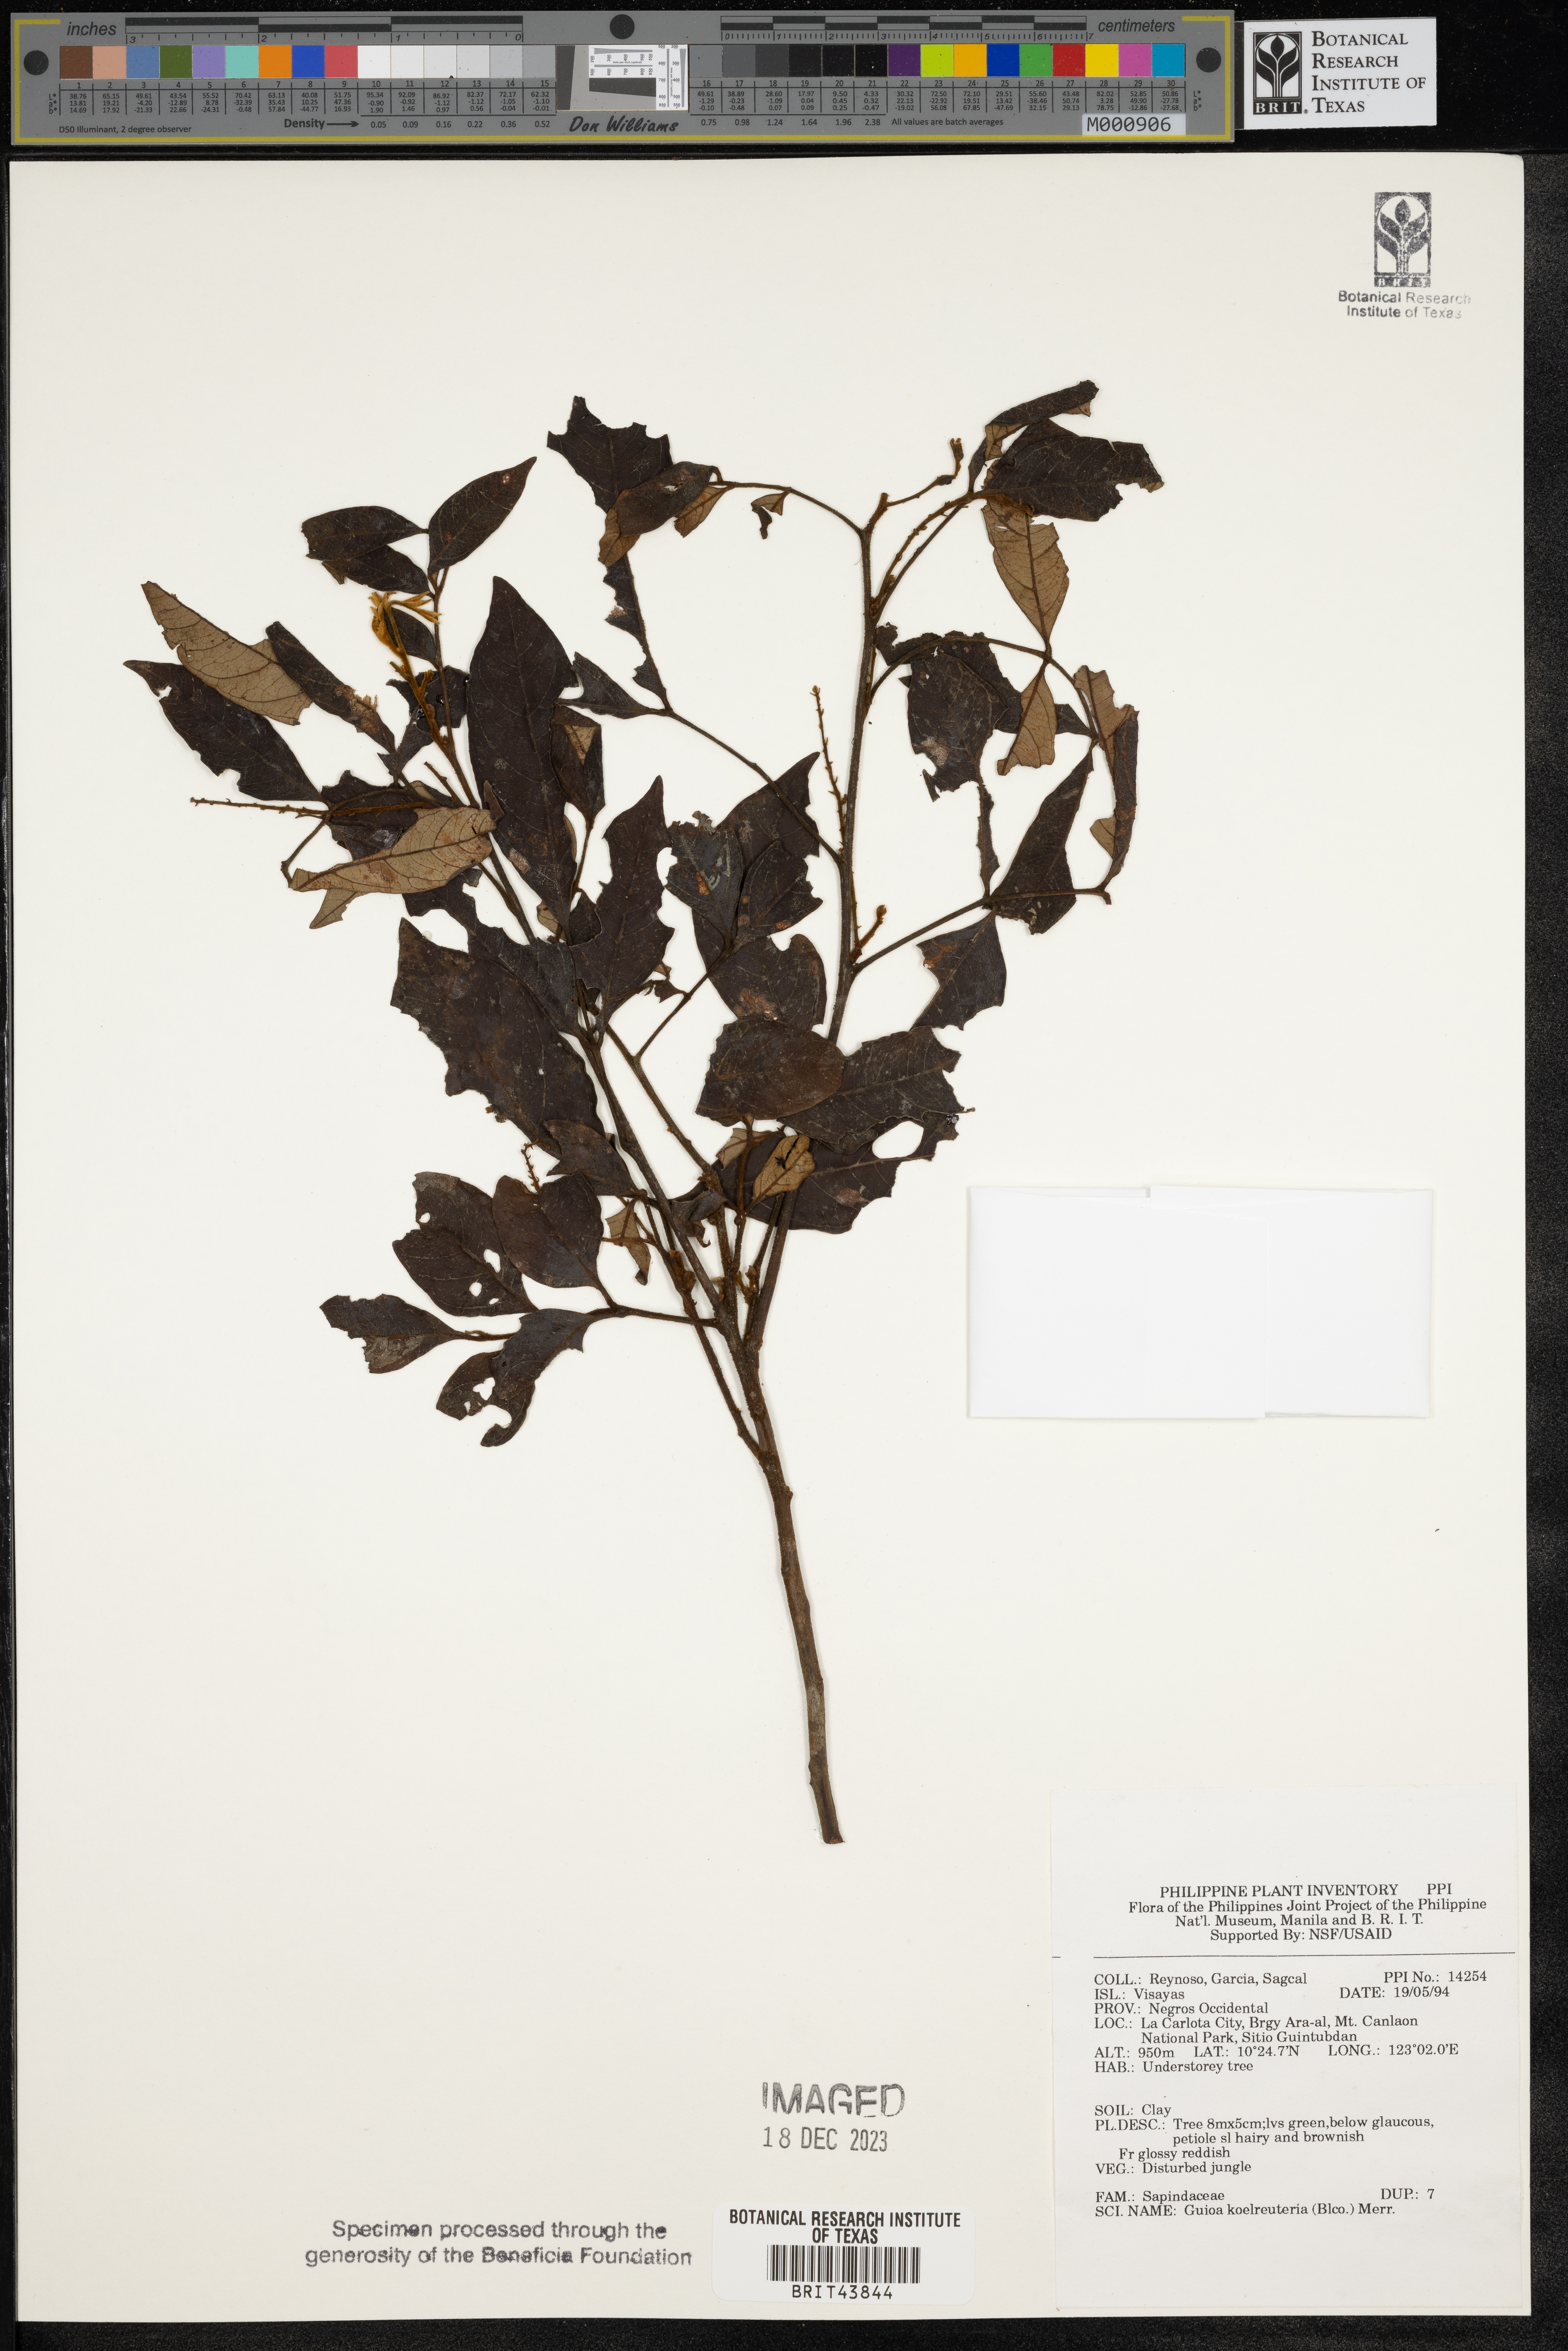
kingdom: Plantae
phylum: Tracheophyta
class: Magnoliopsida
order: Sapindales
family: Sapindaceae
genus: Guioa
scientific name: Guioa koelreuteria
